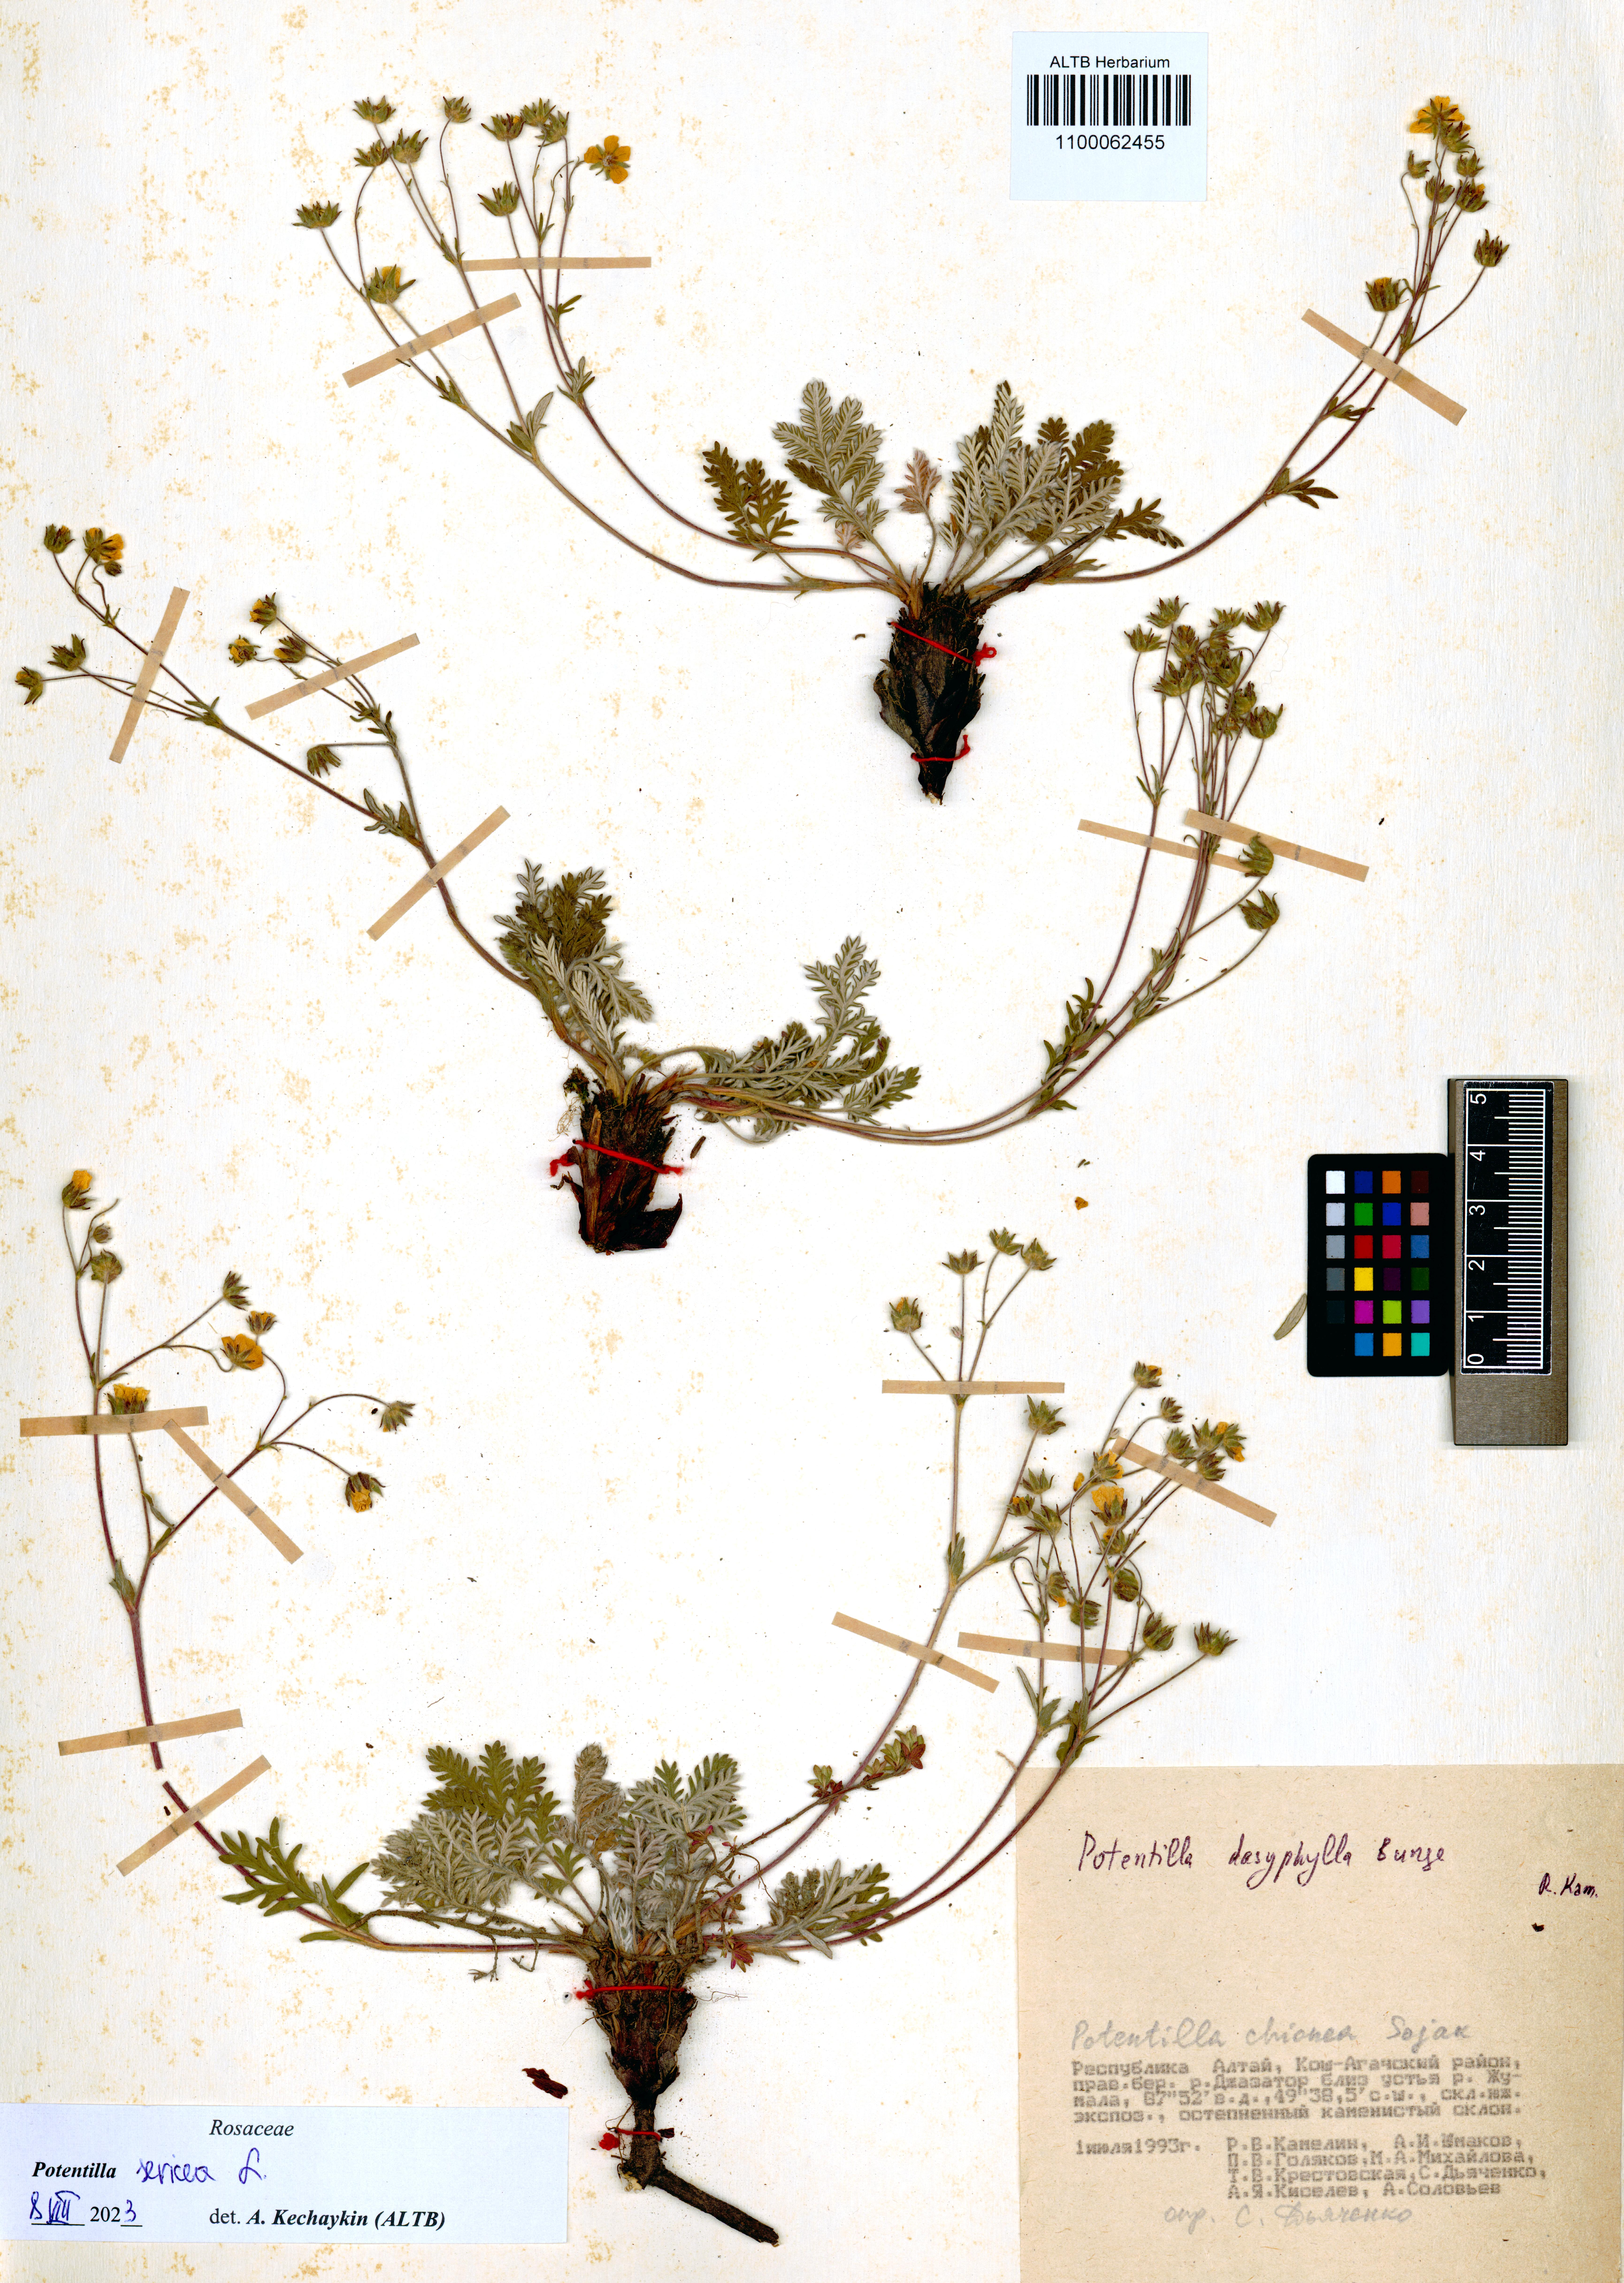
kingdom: Plantae
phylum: Tracheophyta
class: Magnoliopsida
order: Rosales
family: Rosaceae
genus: Potentilla
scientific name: Potentilla sericea
